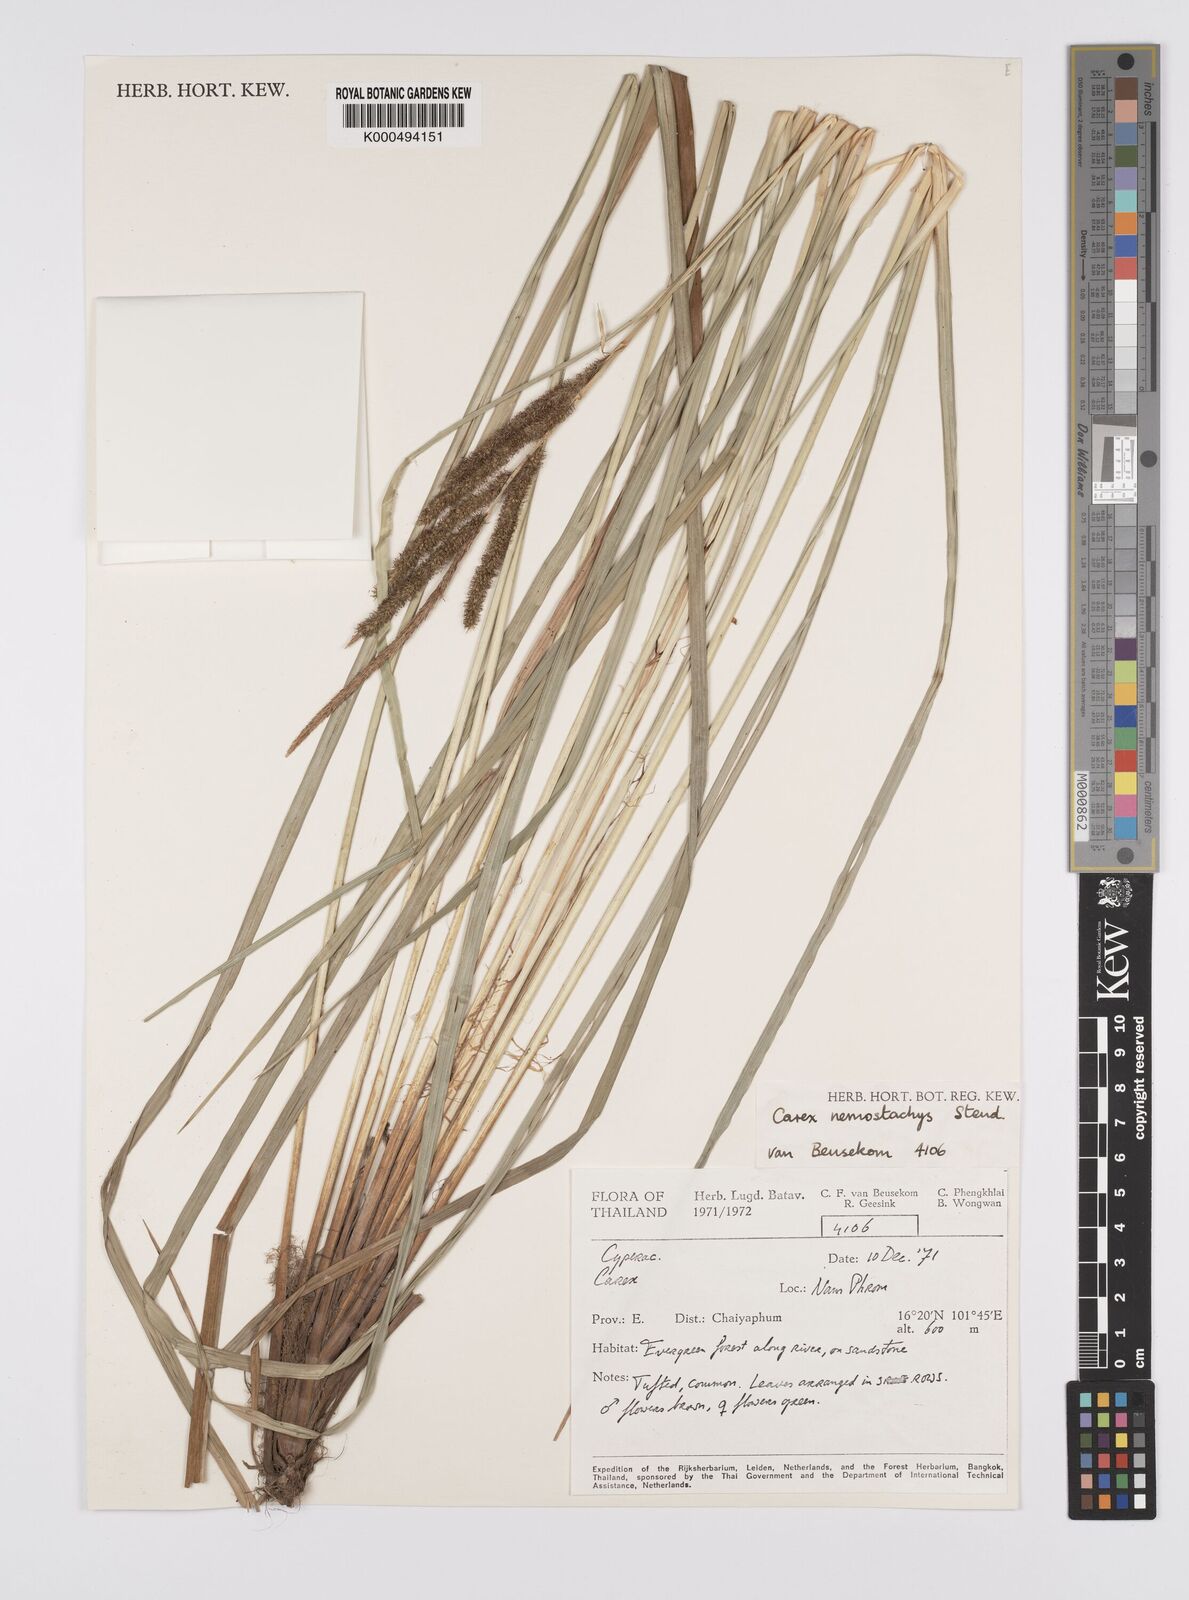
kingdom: Plantae
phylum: Tracheophyta
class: Liliopsida
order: Poales
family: Cyperaceae
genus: Carex
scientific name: Carex nemostachys
